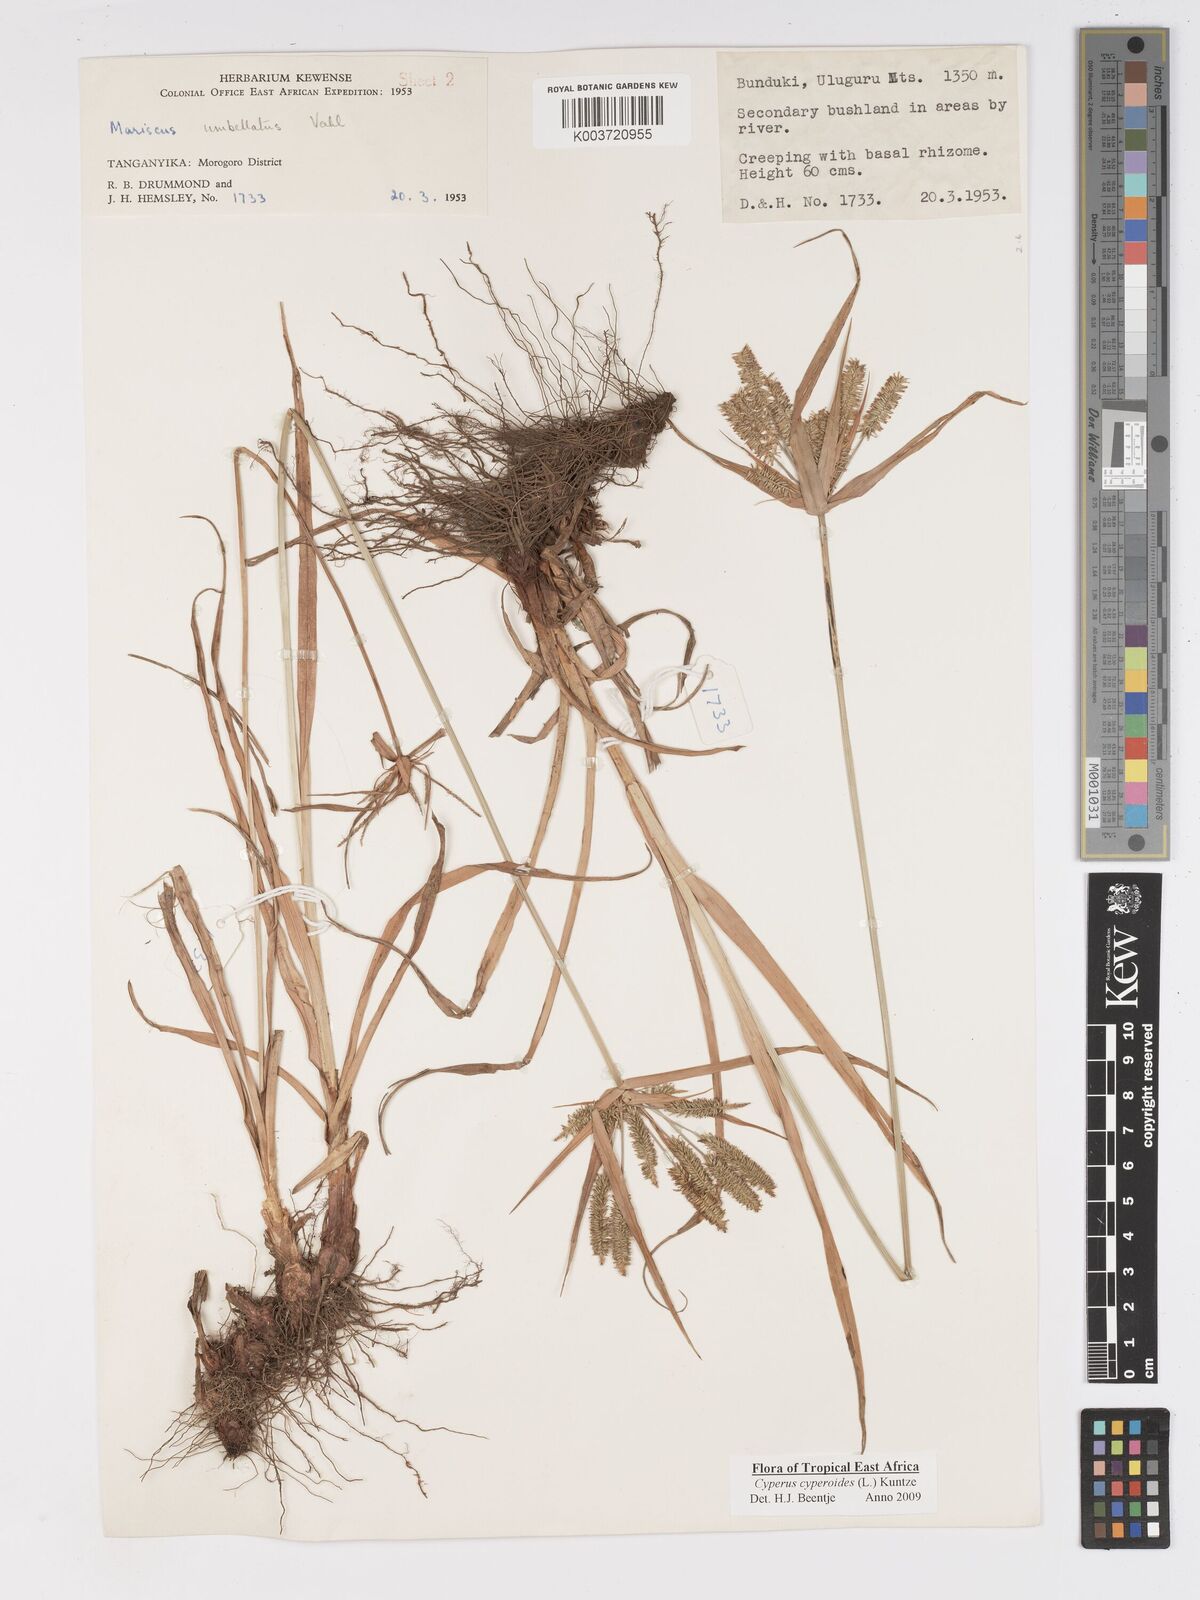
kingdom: Plantae
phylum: Tracheophyta
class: Liliopsida
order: Poales
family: Cyperaceae
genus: Cyperus
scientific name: Cyperus cyperoides
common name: Pacific island flat sedge
